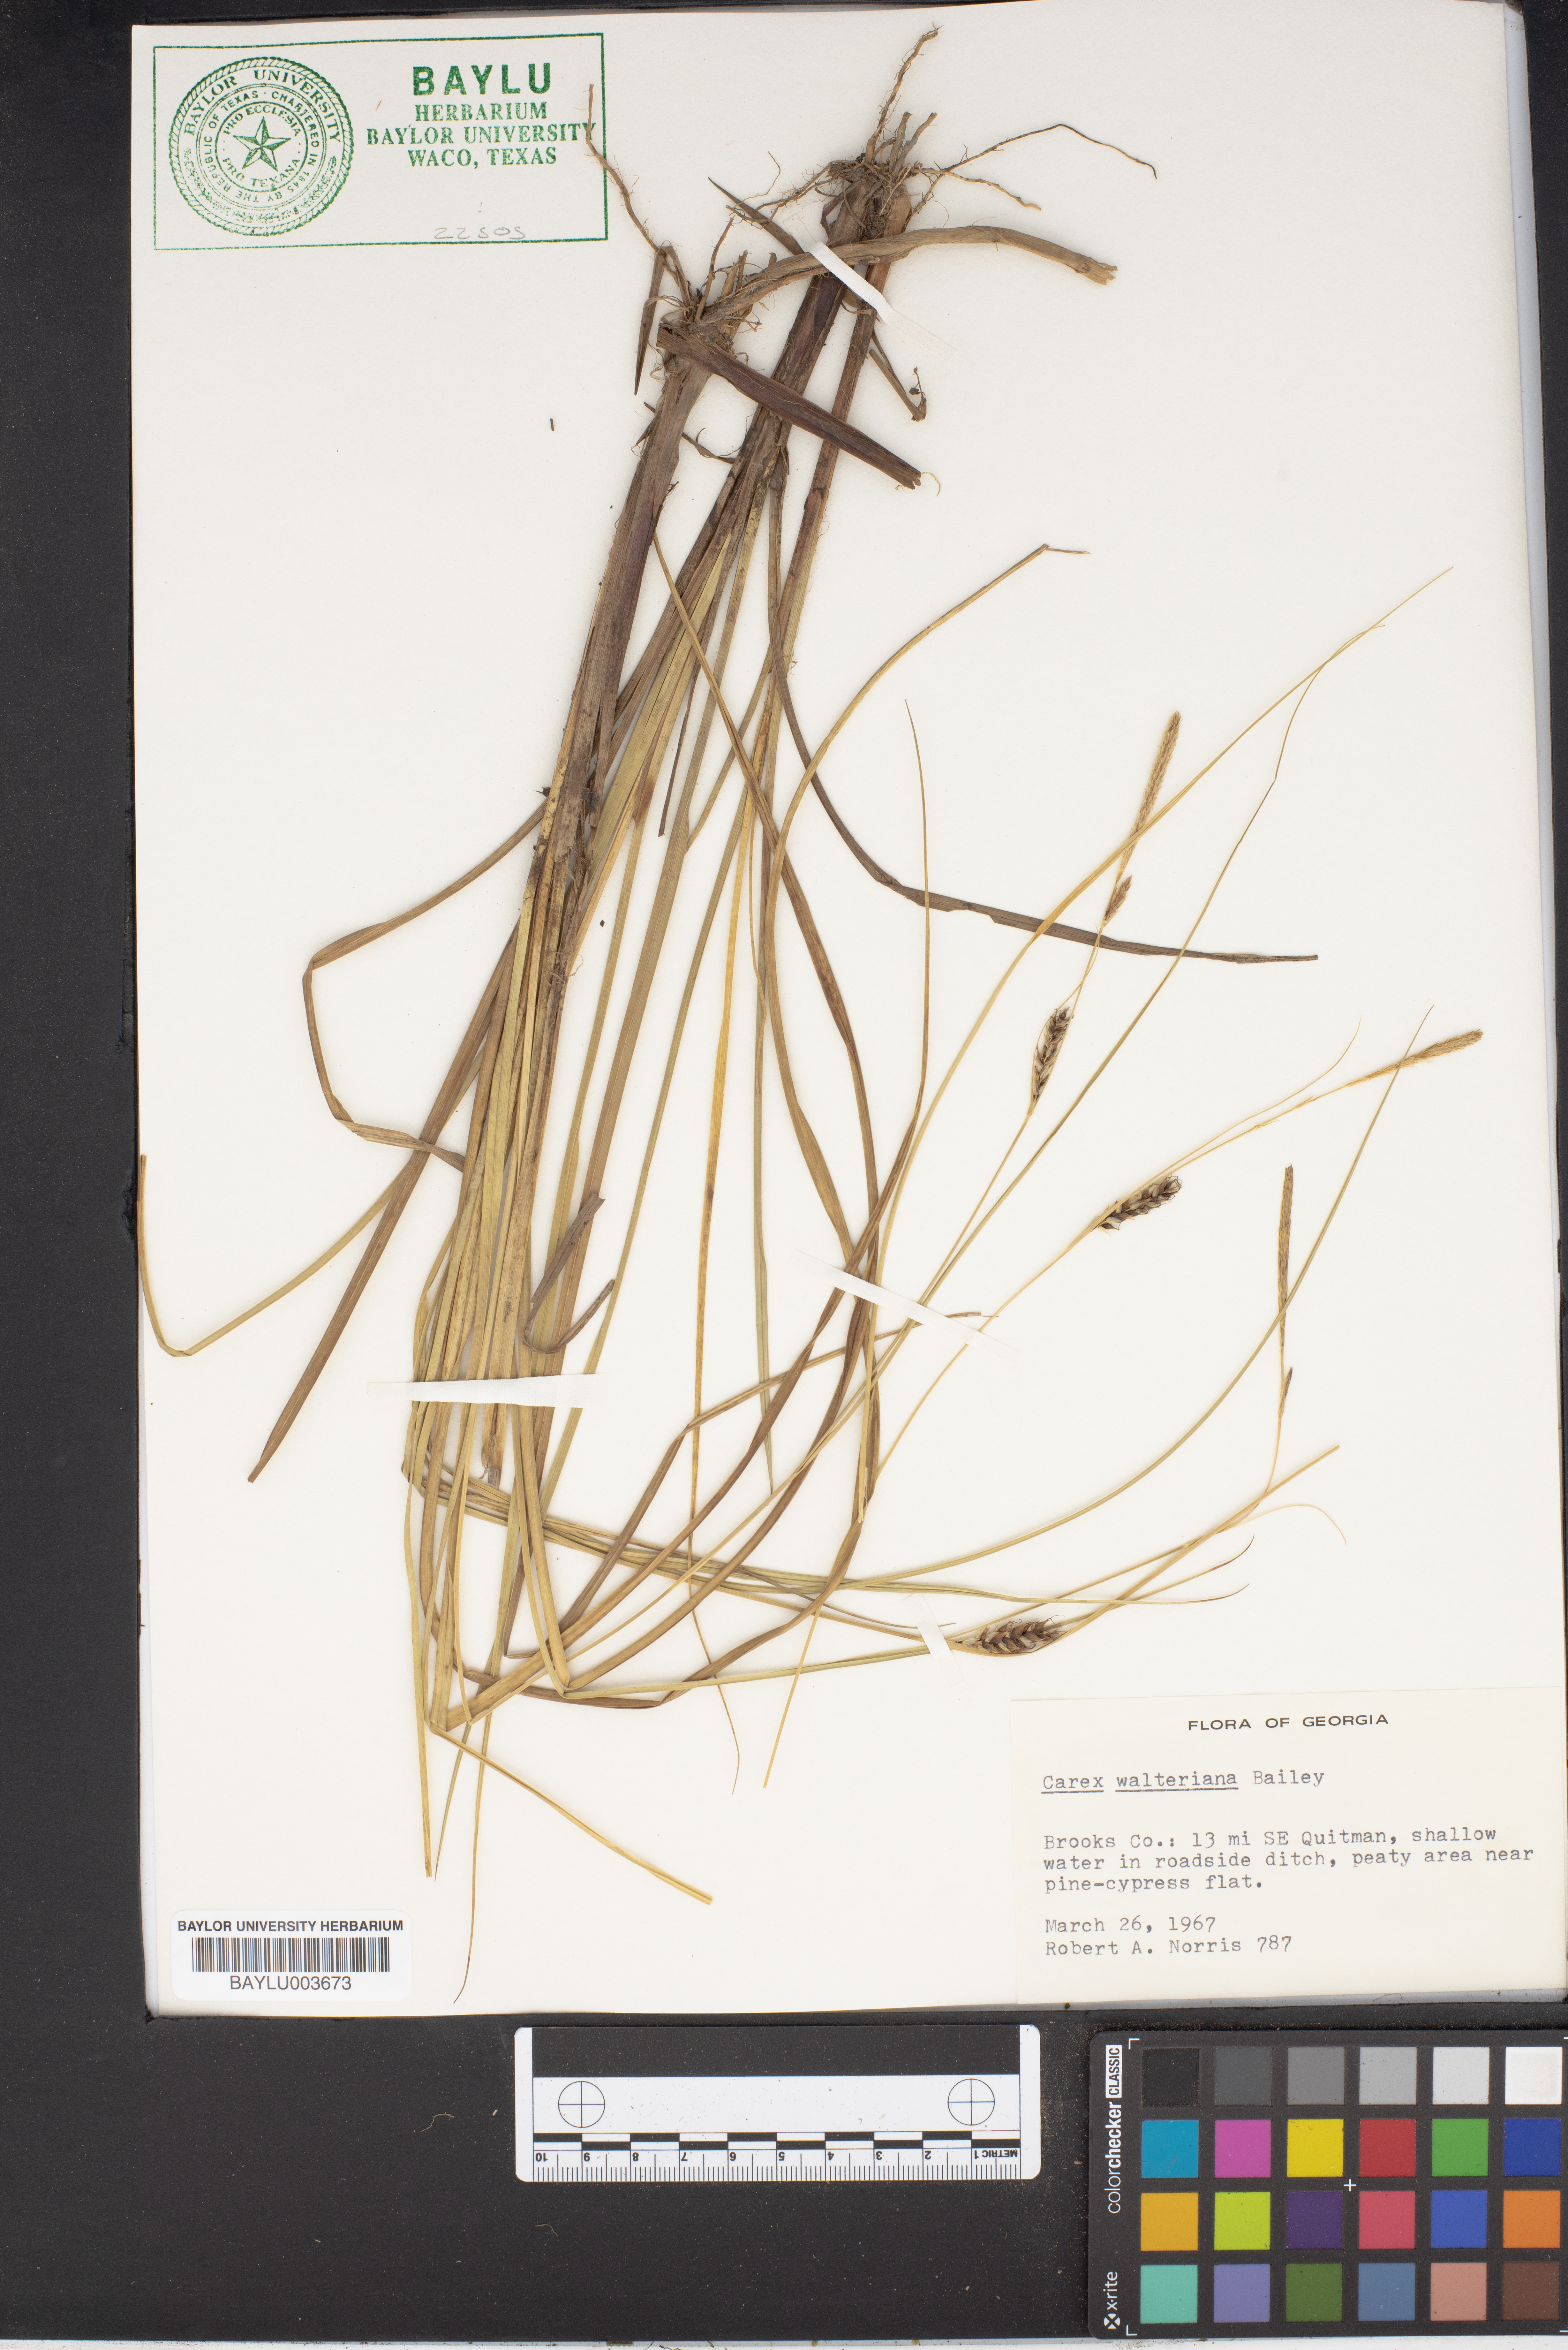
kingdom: Plantae
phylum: Tracheophyta
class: Liliopsida
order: Poales
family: Cyperaceae
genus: Carex
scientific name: Carex striata
